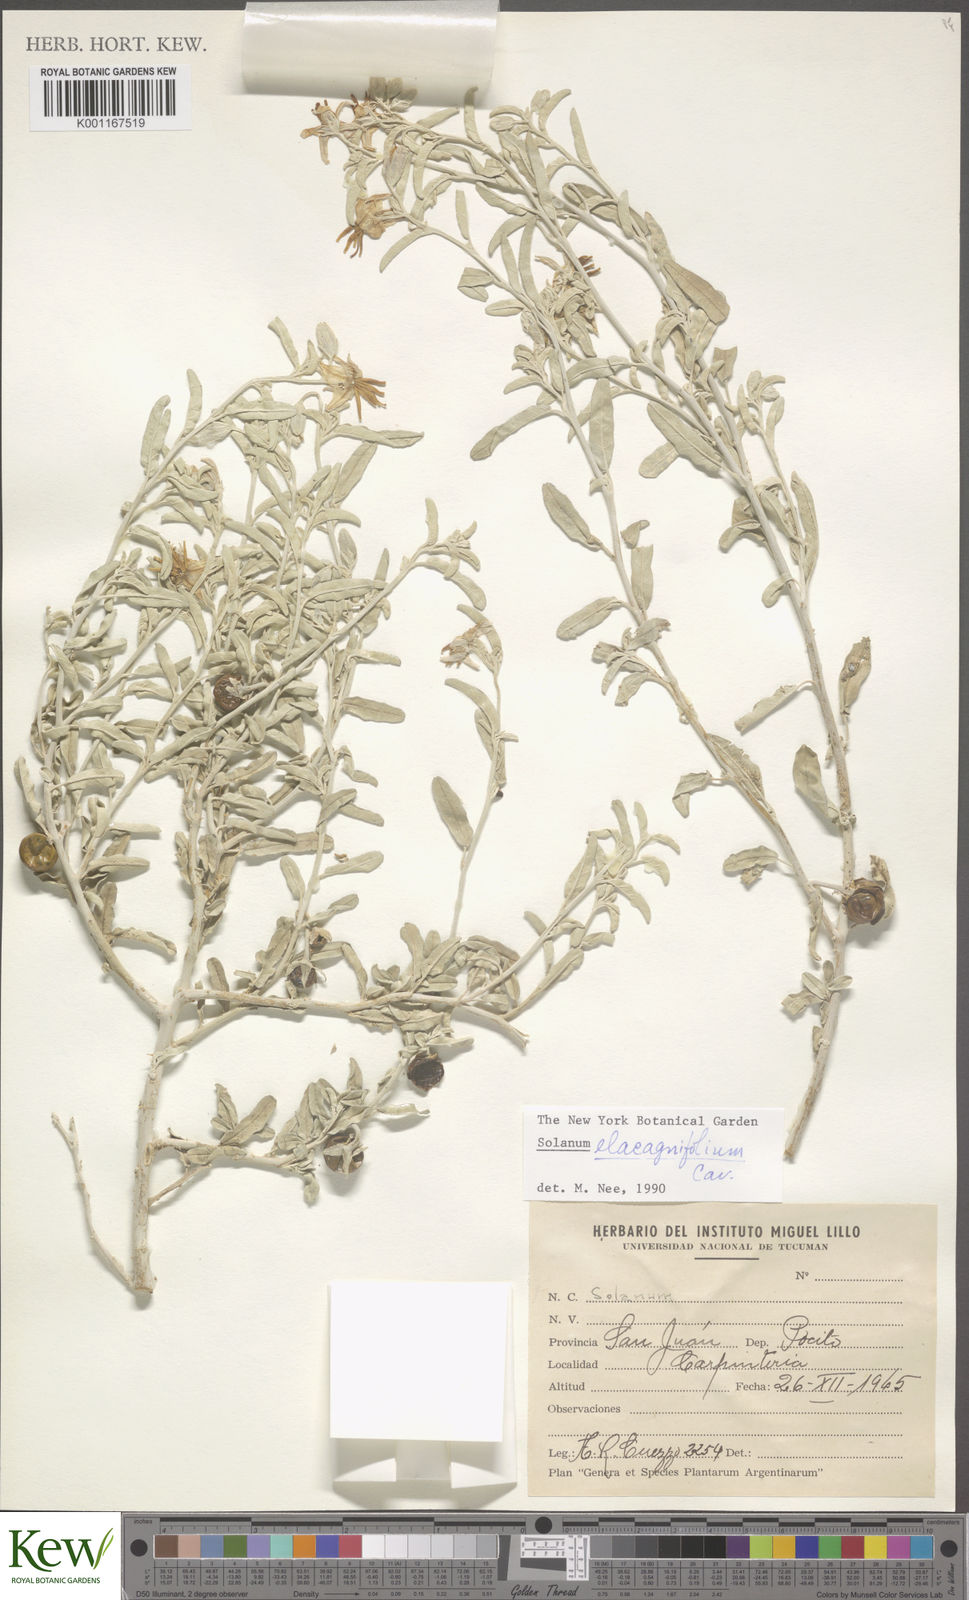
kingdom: Plantae
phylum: Tracheophyta
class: Magnoliopsida
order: Solanales
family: Solanaceae
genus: Solanum
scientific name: Solanum elaeagnifolium
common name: Silverleaf nightshade
